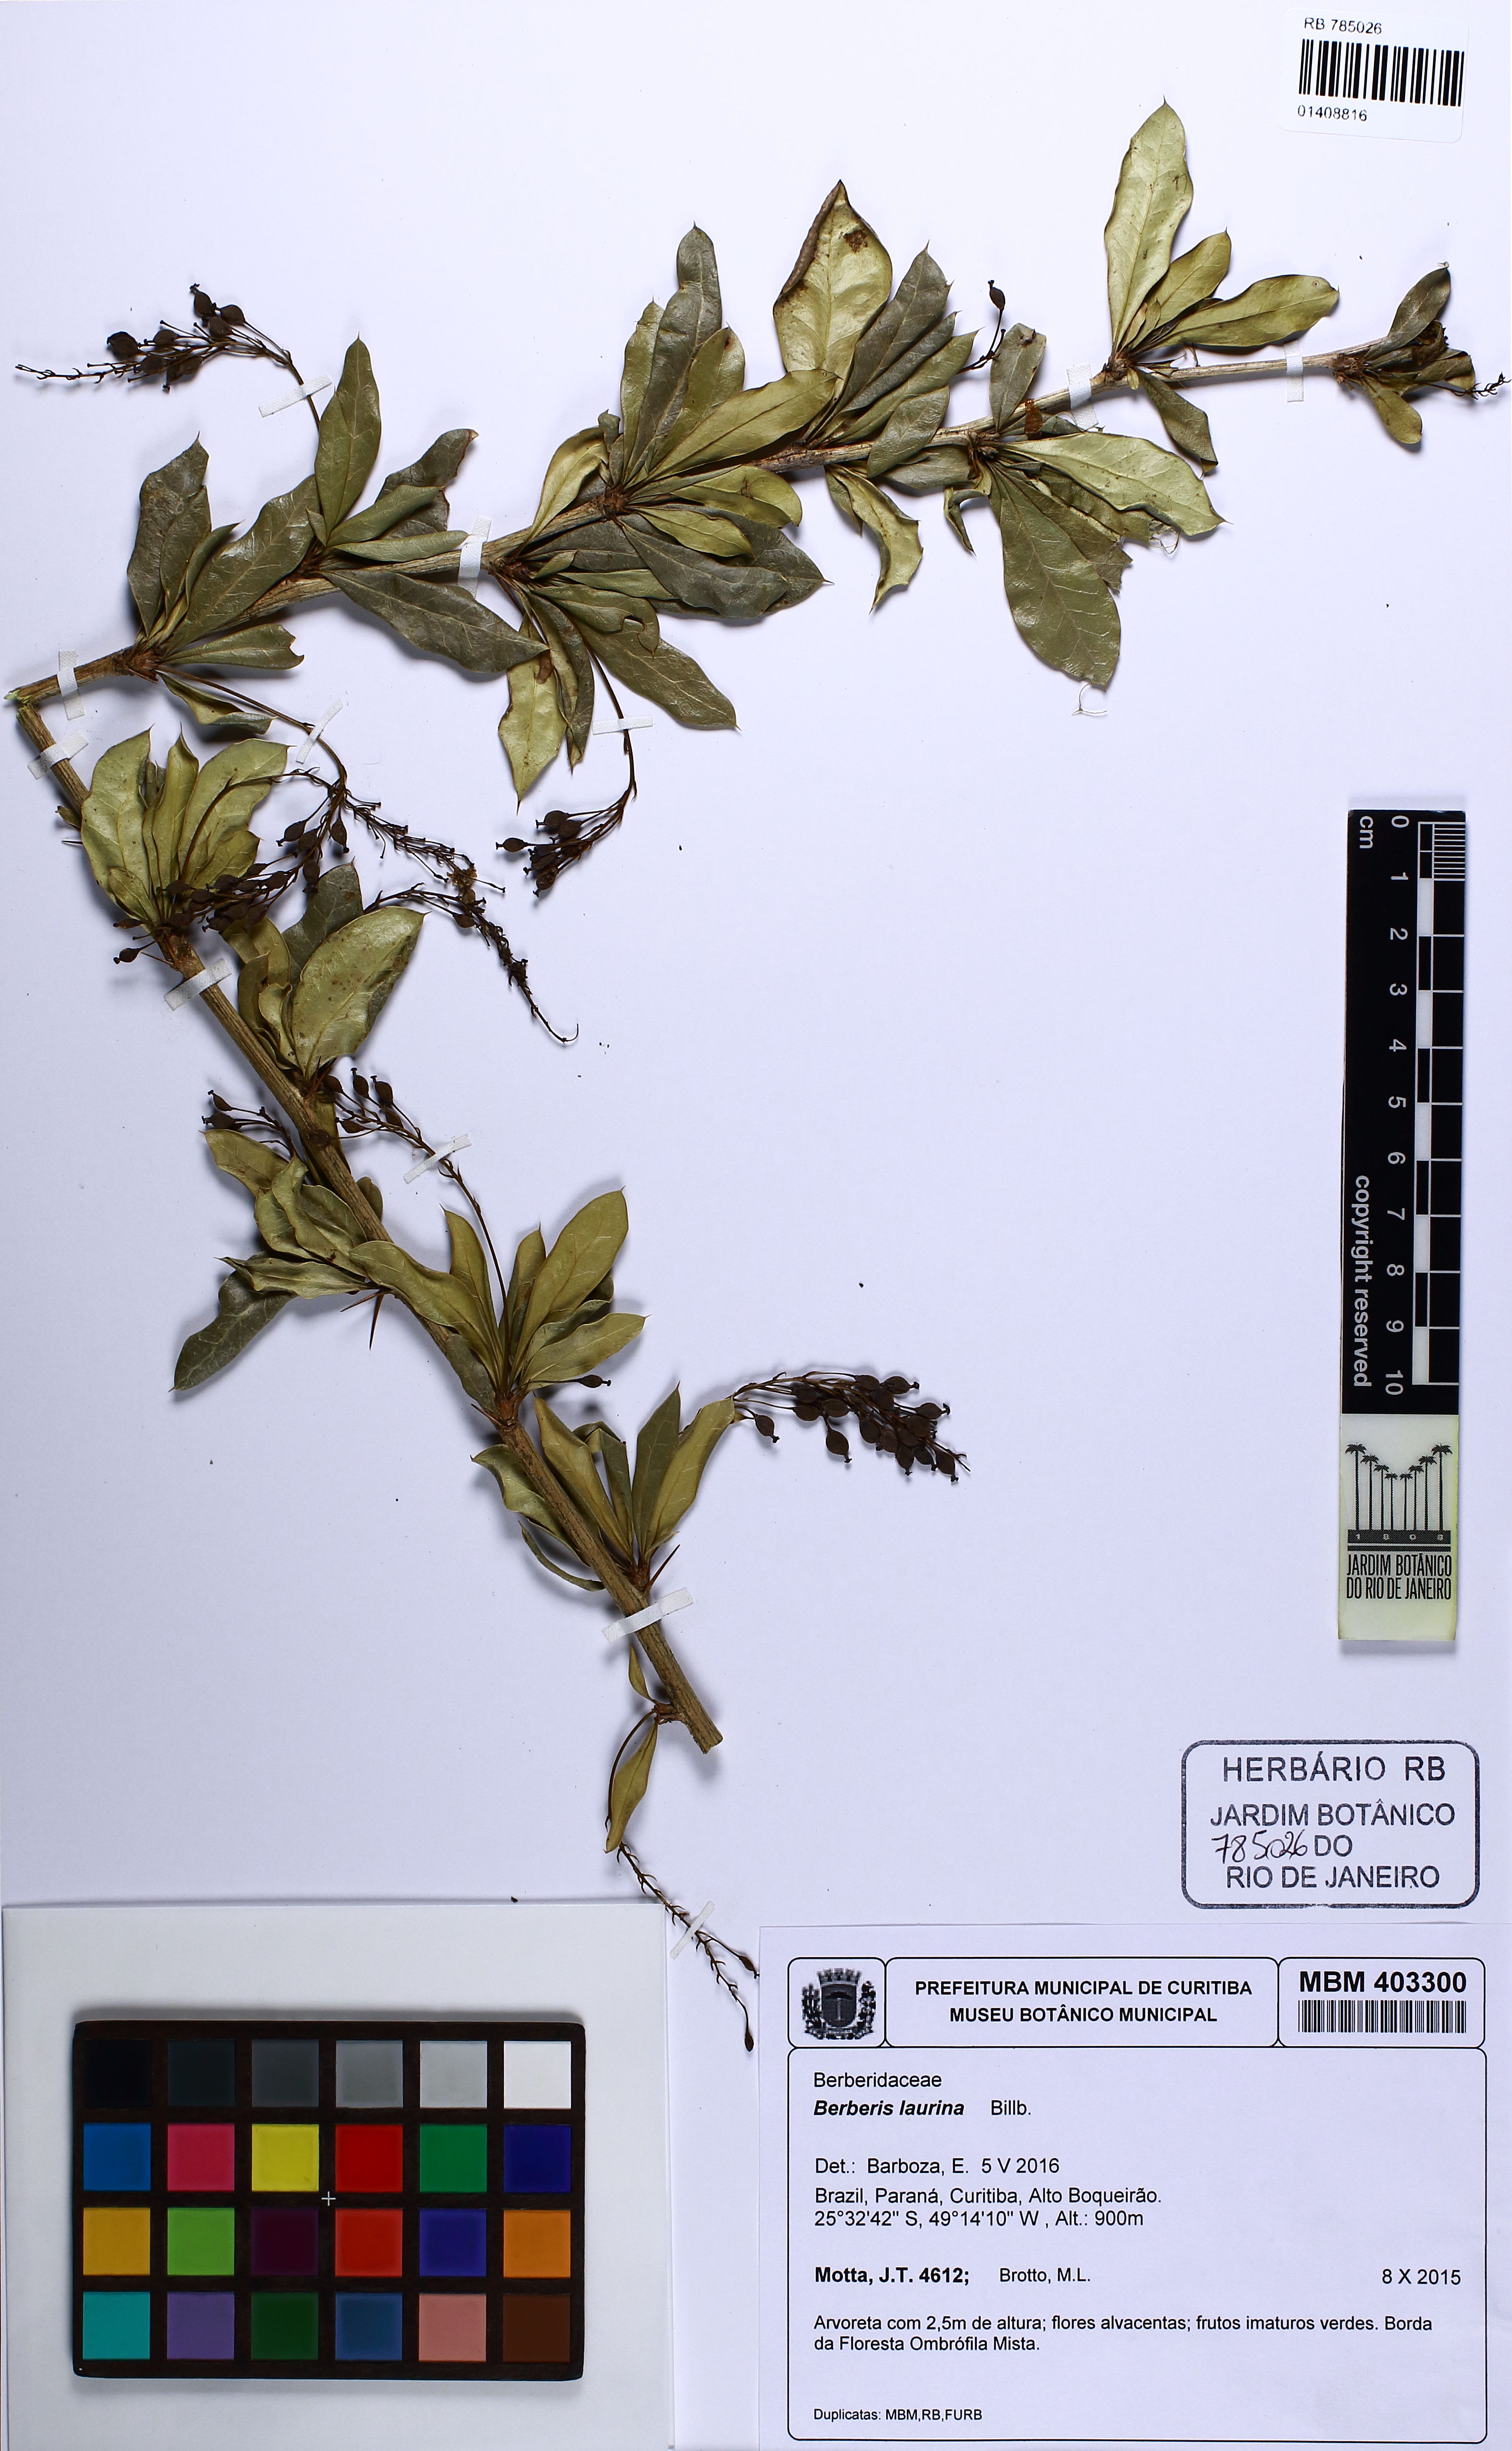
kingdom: Plantae
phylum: Tracheophyta
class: Magnoliopsida
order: Ranunculales
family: Berberidaceae
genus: Berberis
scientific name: Berberis laurina
